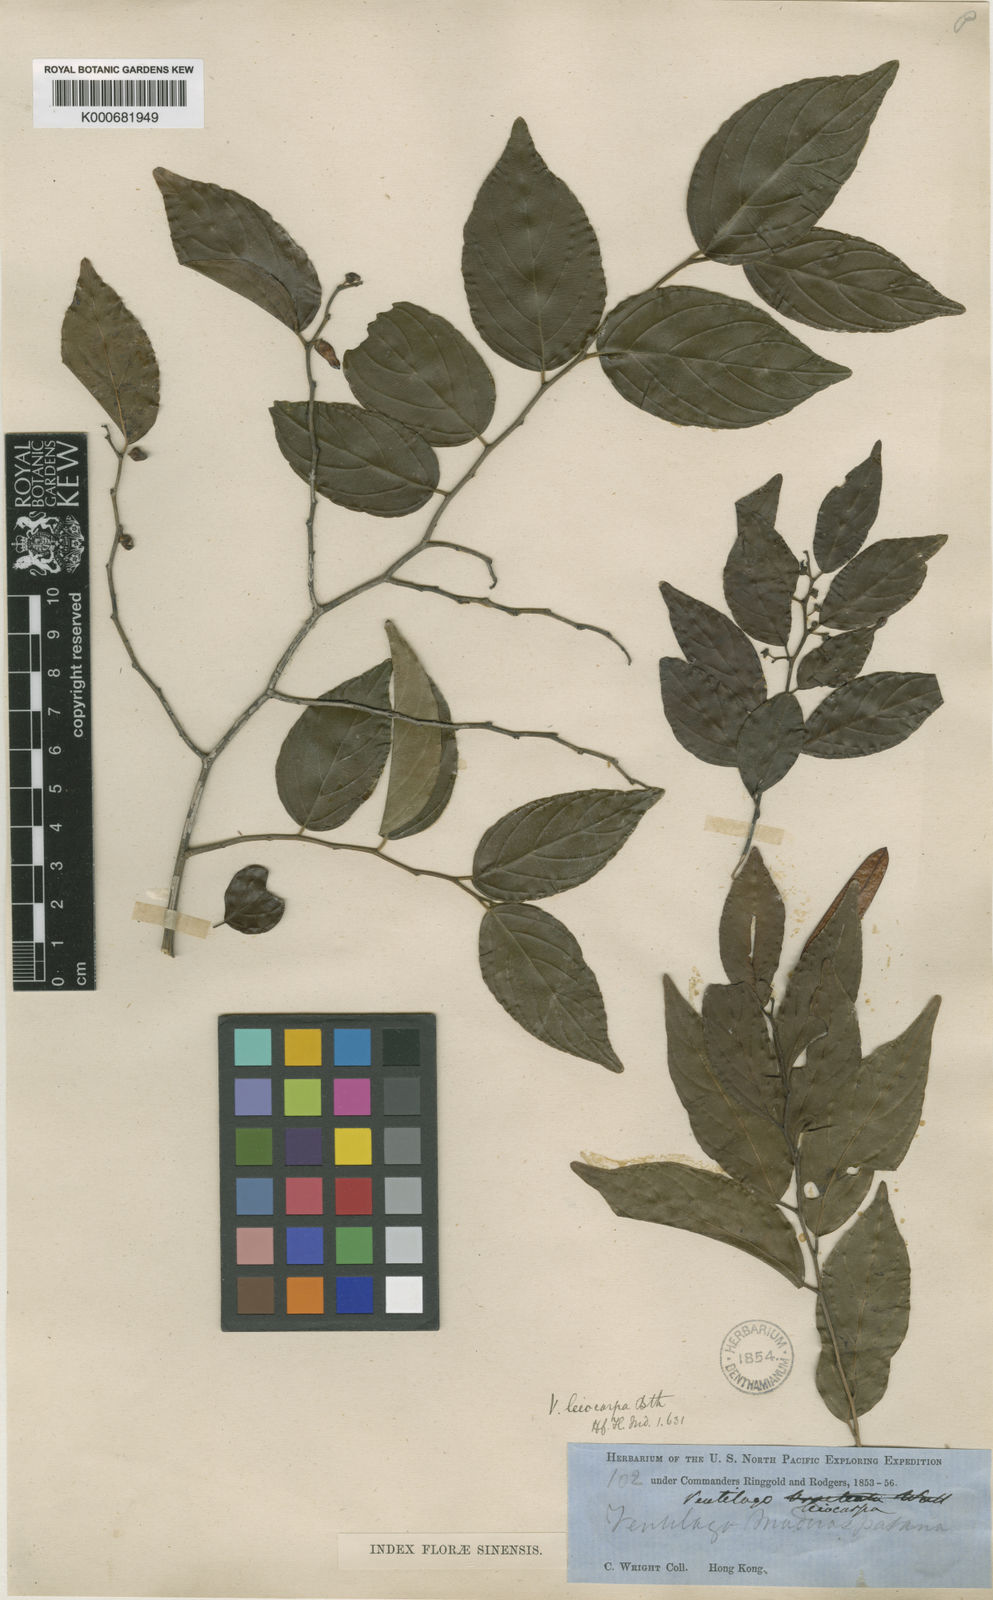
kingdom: Plantae
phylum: Tracheophyta
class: Magnoliopsida
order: Rosales
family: Rhamnaceae
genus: Ventilago
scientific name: Ventilago leiocarpa
